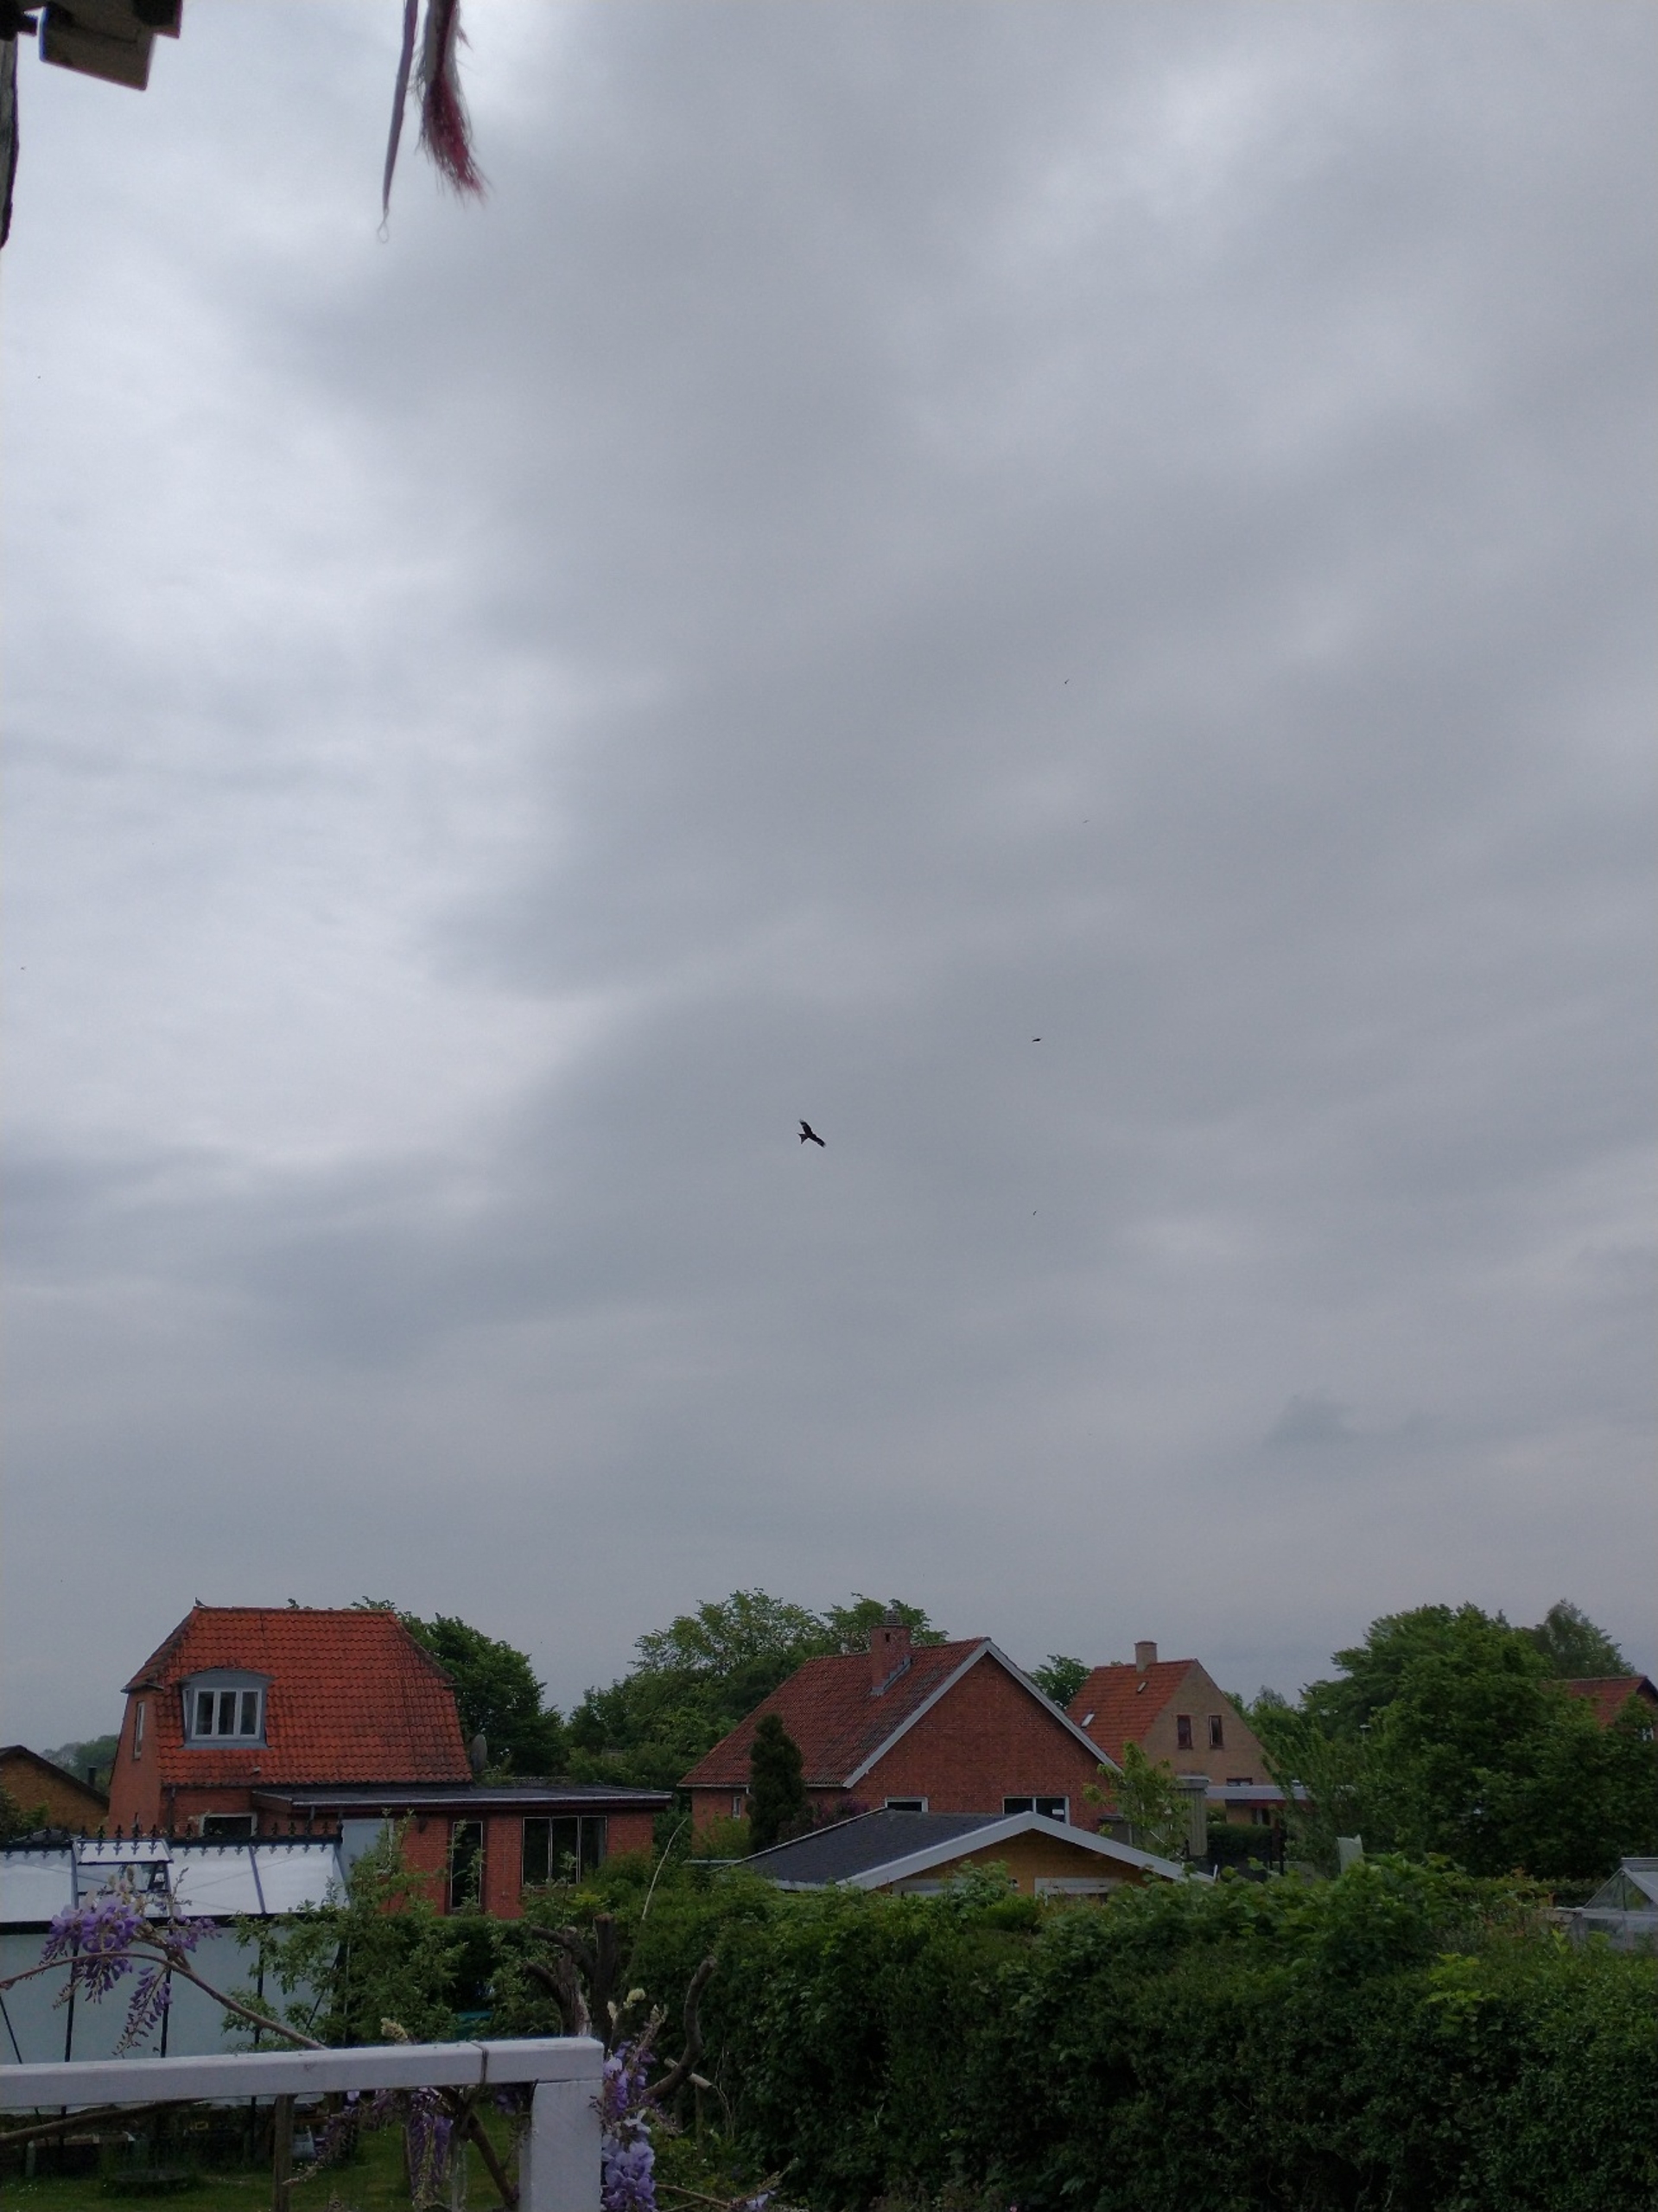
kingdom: Animalia
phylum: Chordata
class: Aves
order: Accipitriformes
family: Accipitridae
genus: Milvus
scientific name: Milvus milvus
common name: Rød glente
